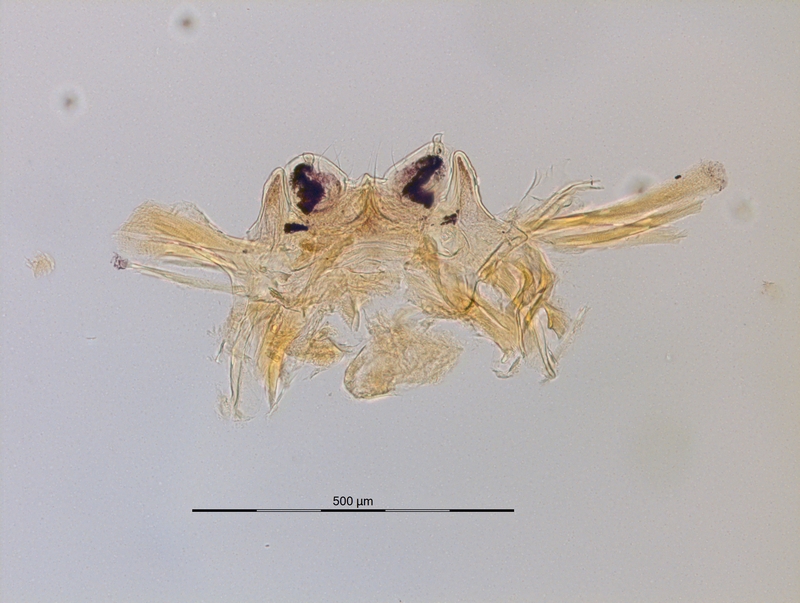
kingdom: Animalia
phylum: Arthropoda
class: Diplopoda
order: Chordeumatida
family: Craspedosomatidae
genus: Carniosoma
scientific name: Carniosoma abietum
